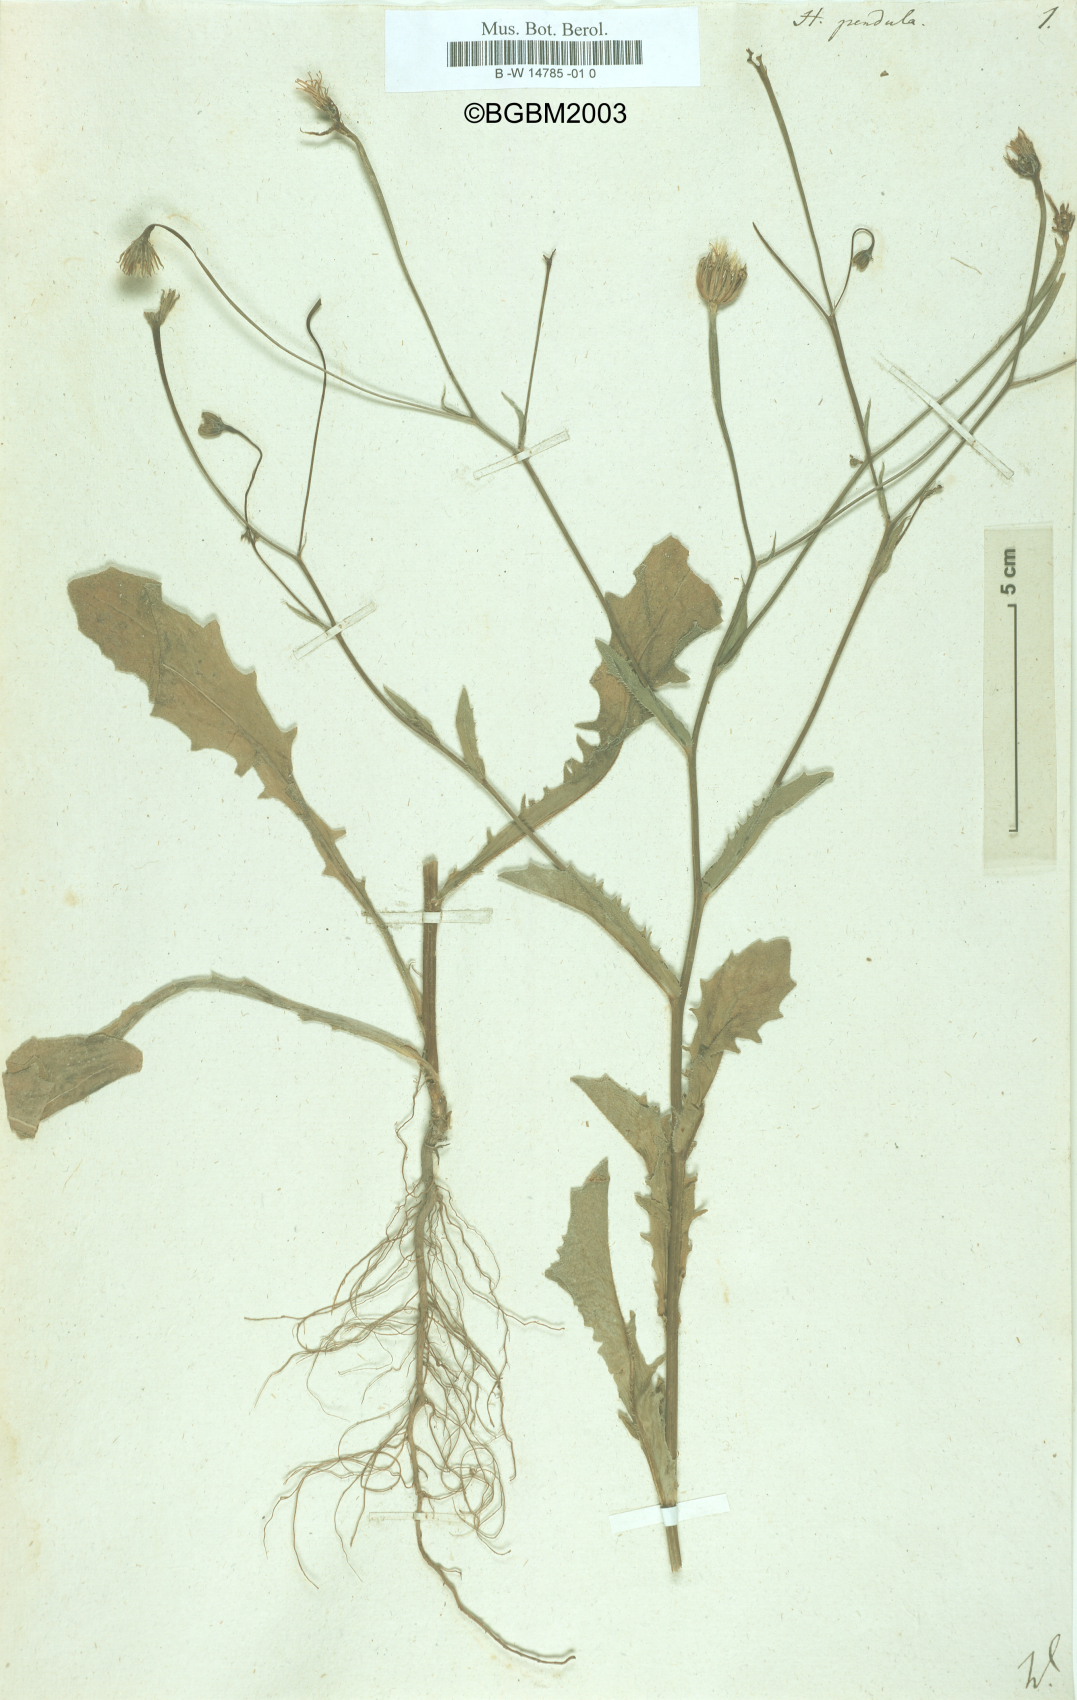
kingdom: Plantae
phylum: Tracheophyta
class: Magnoliopsida
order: Asterales
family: Asteraceae
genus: Hedypnois
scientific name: Hedypnois pendula
